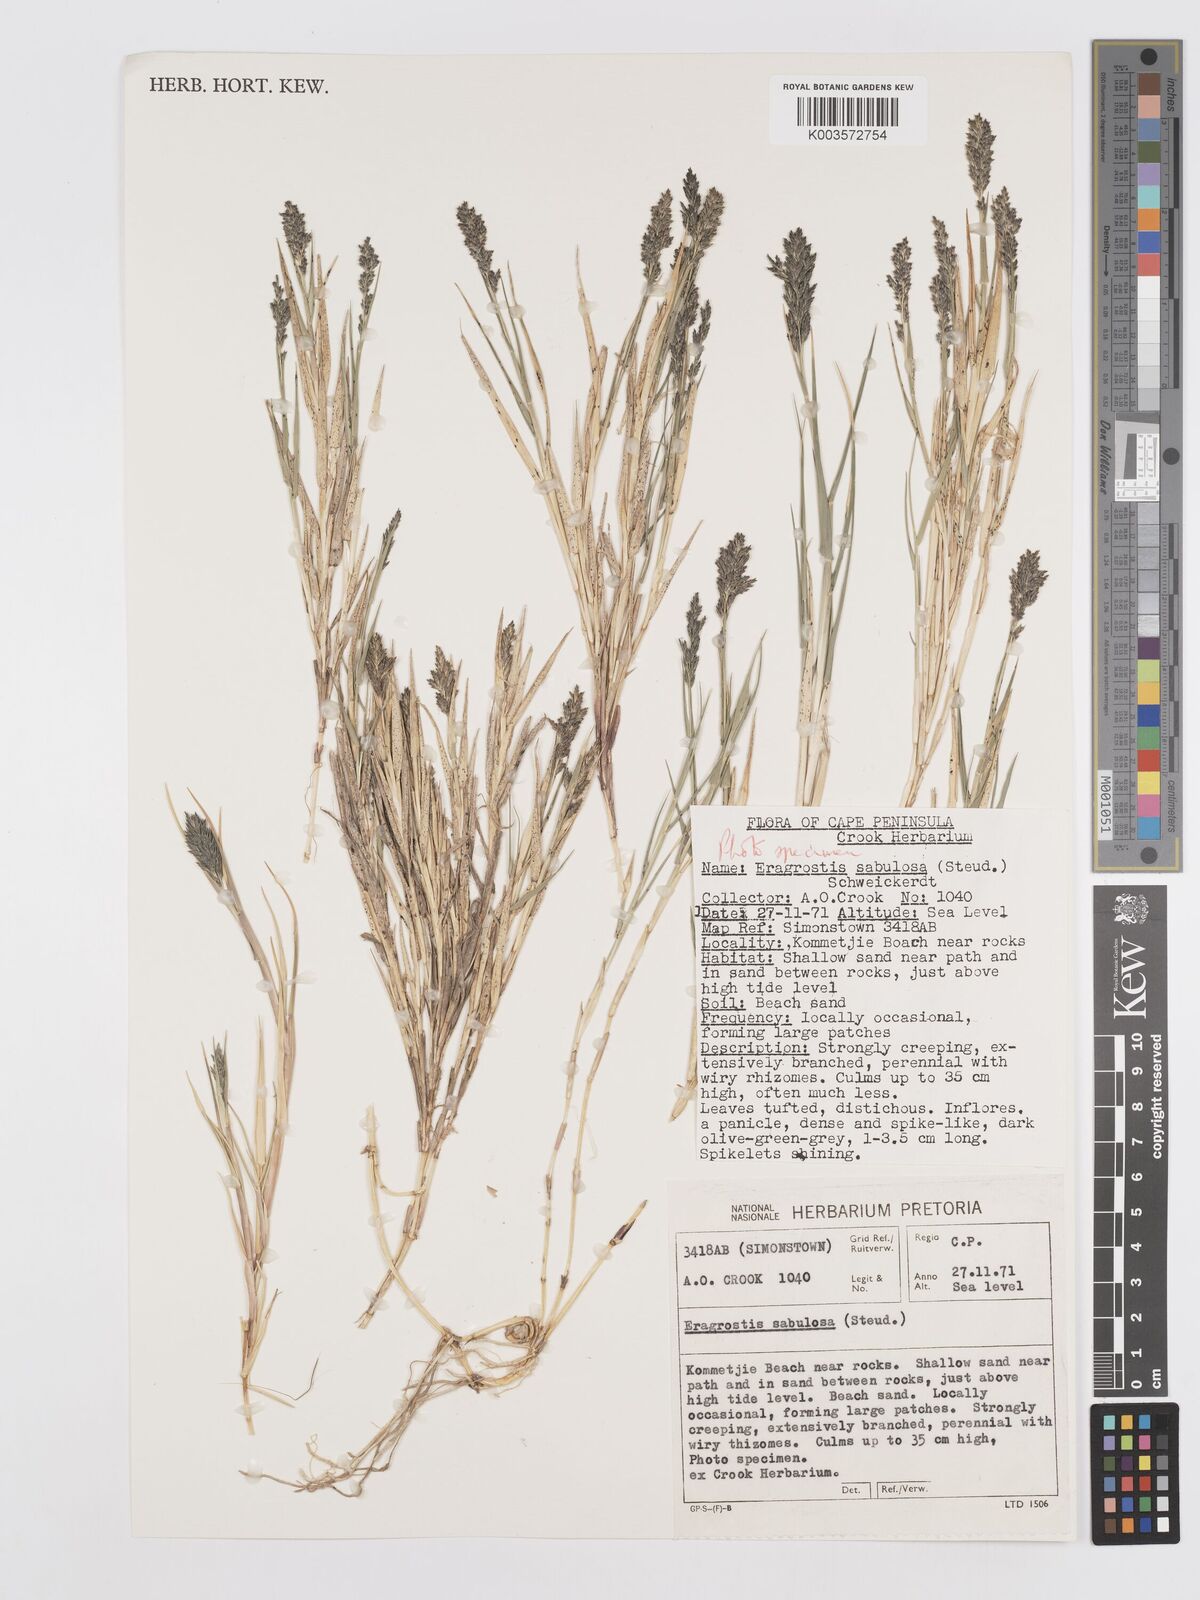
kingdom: Plantae
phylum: Tracheophyta
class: Liliopsida
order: Poales
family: Poaceae
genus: Eragrostis
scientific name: Eragrostis sabulosa
